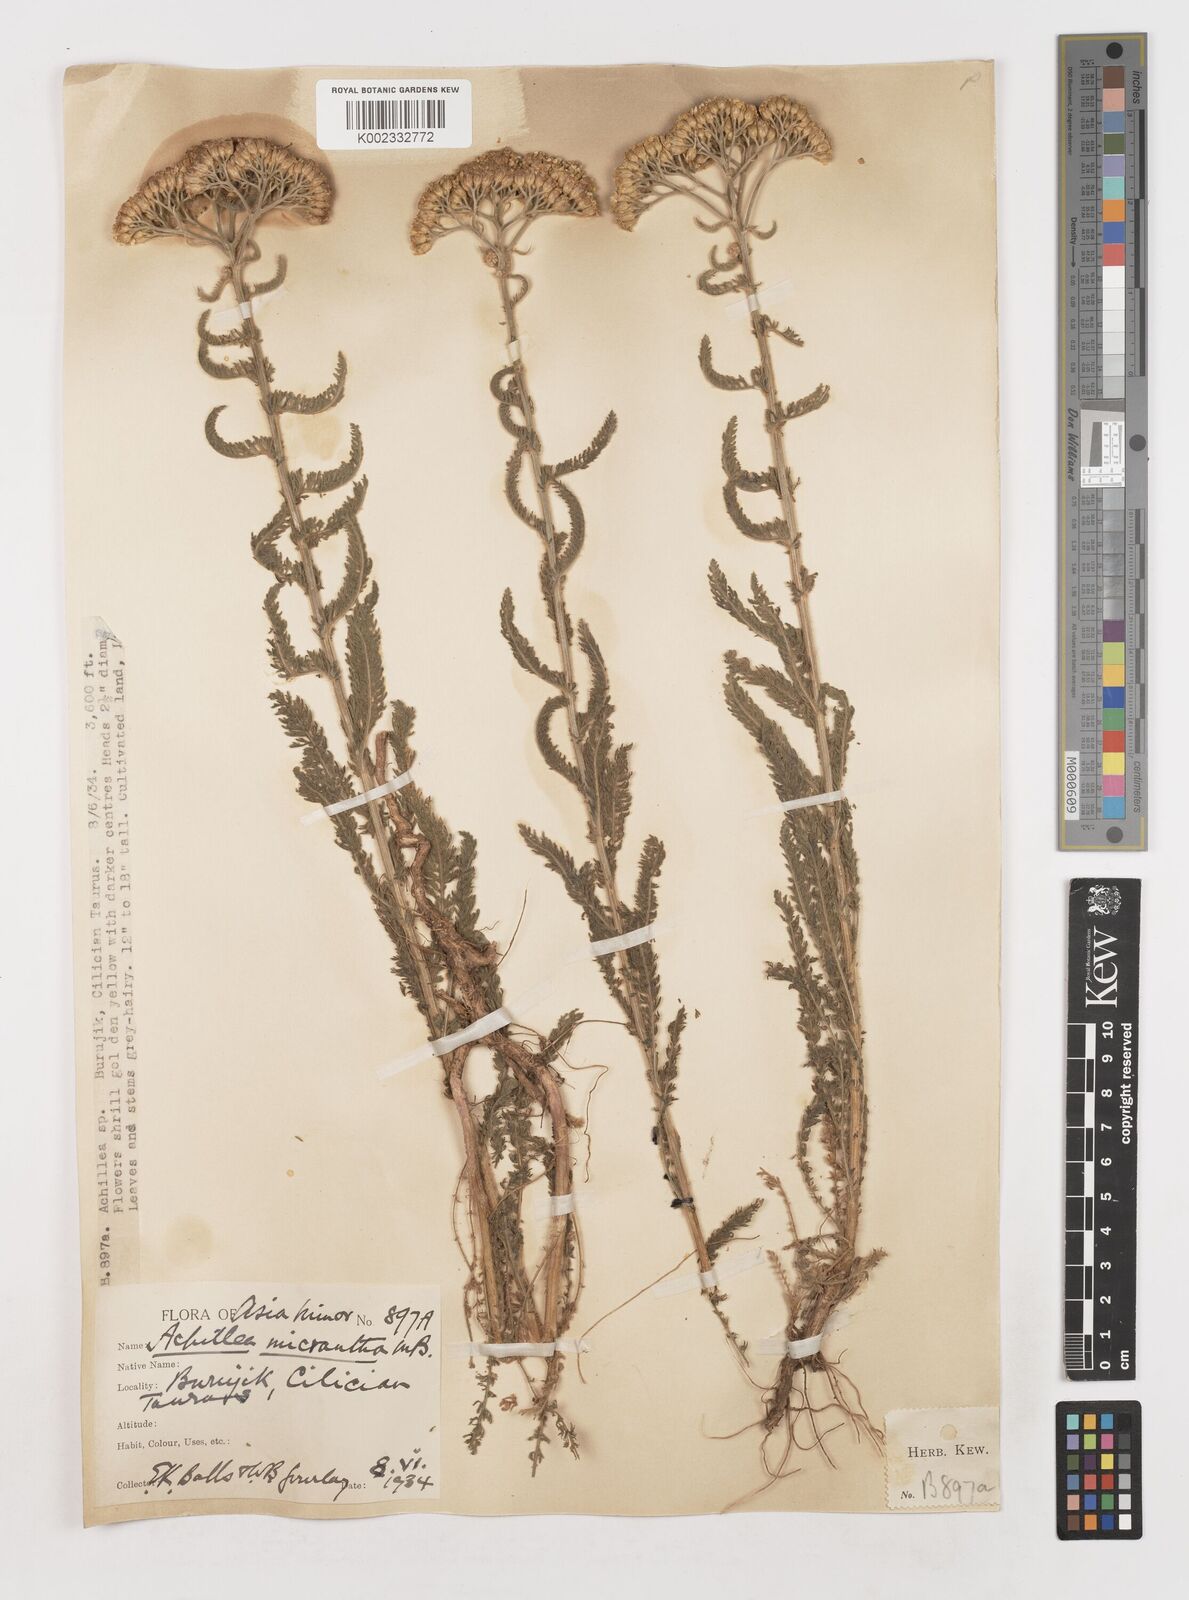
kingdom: Plantae
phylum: Tracheophyta
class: Magnoliopsida
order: Asterales
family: Asteraceae
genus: Achillea
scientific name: Achillea micrantha
